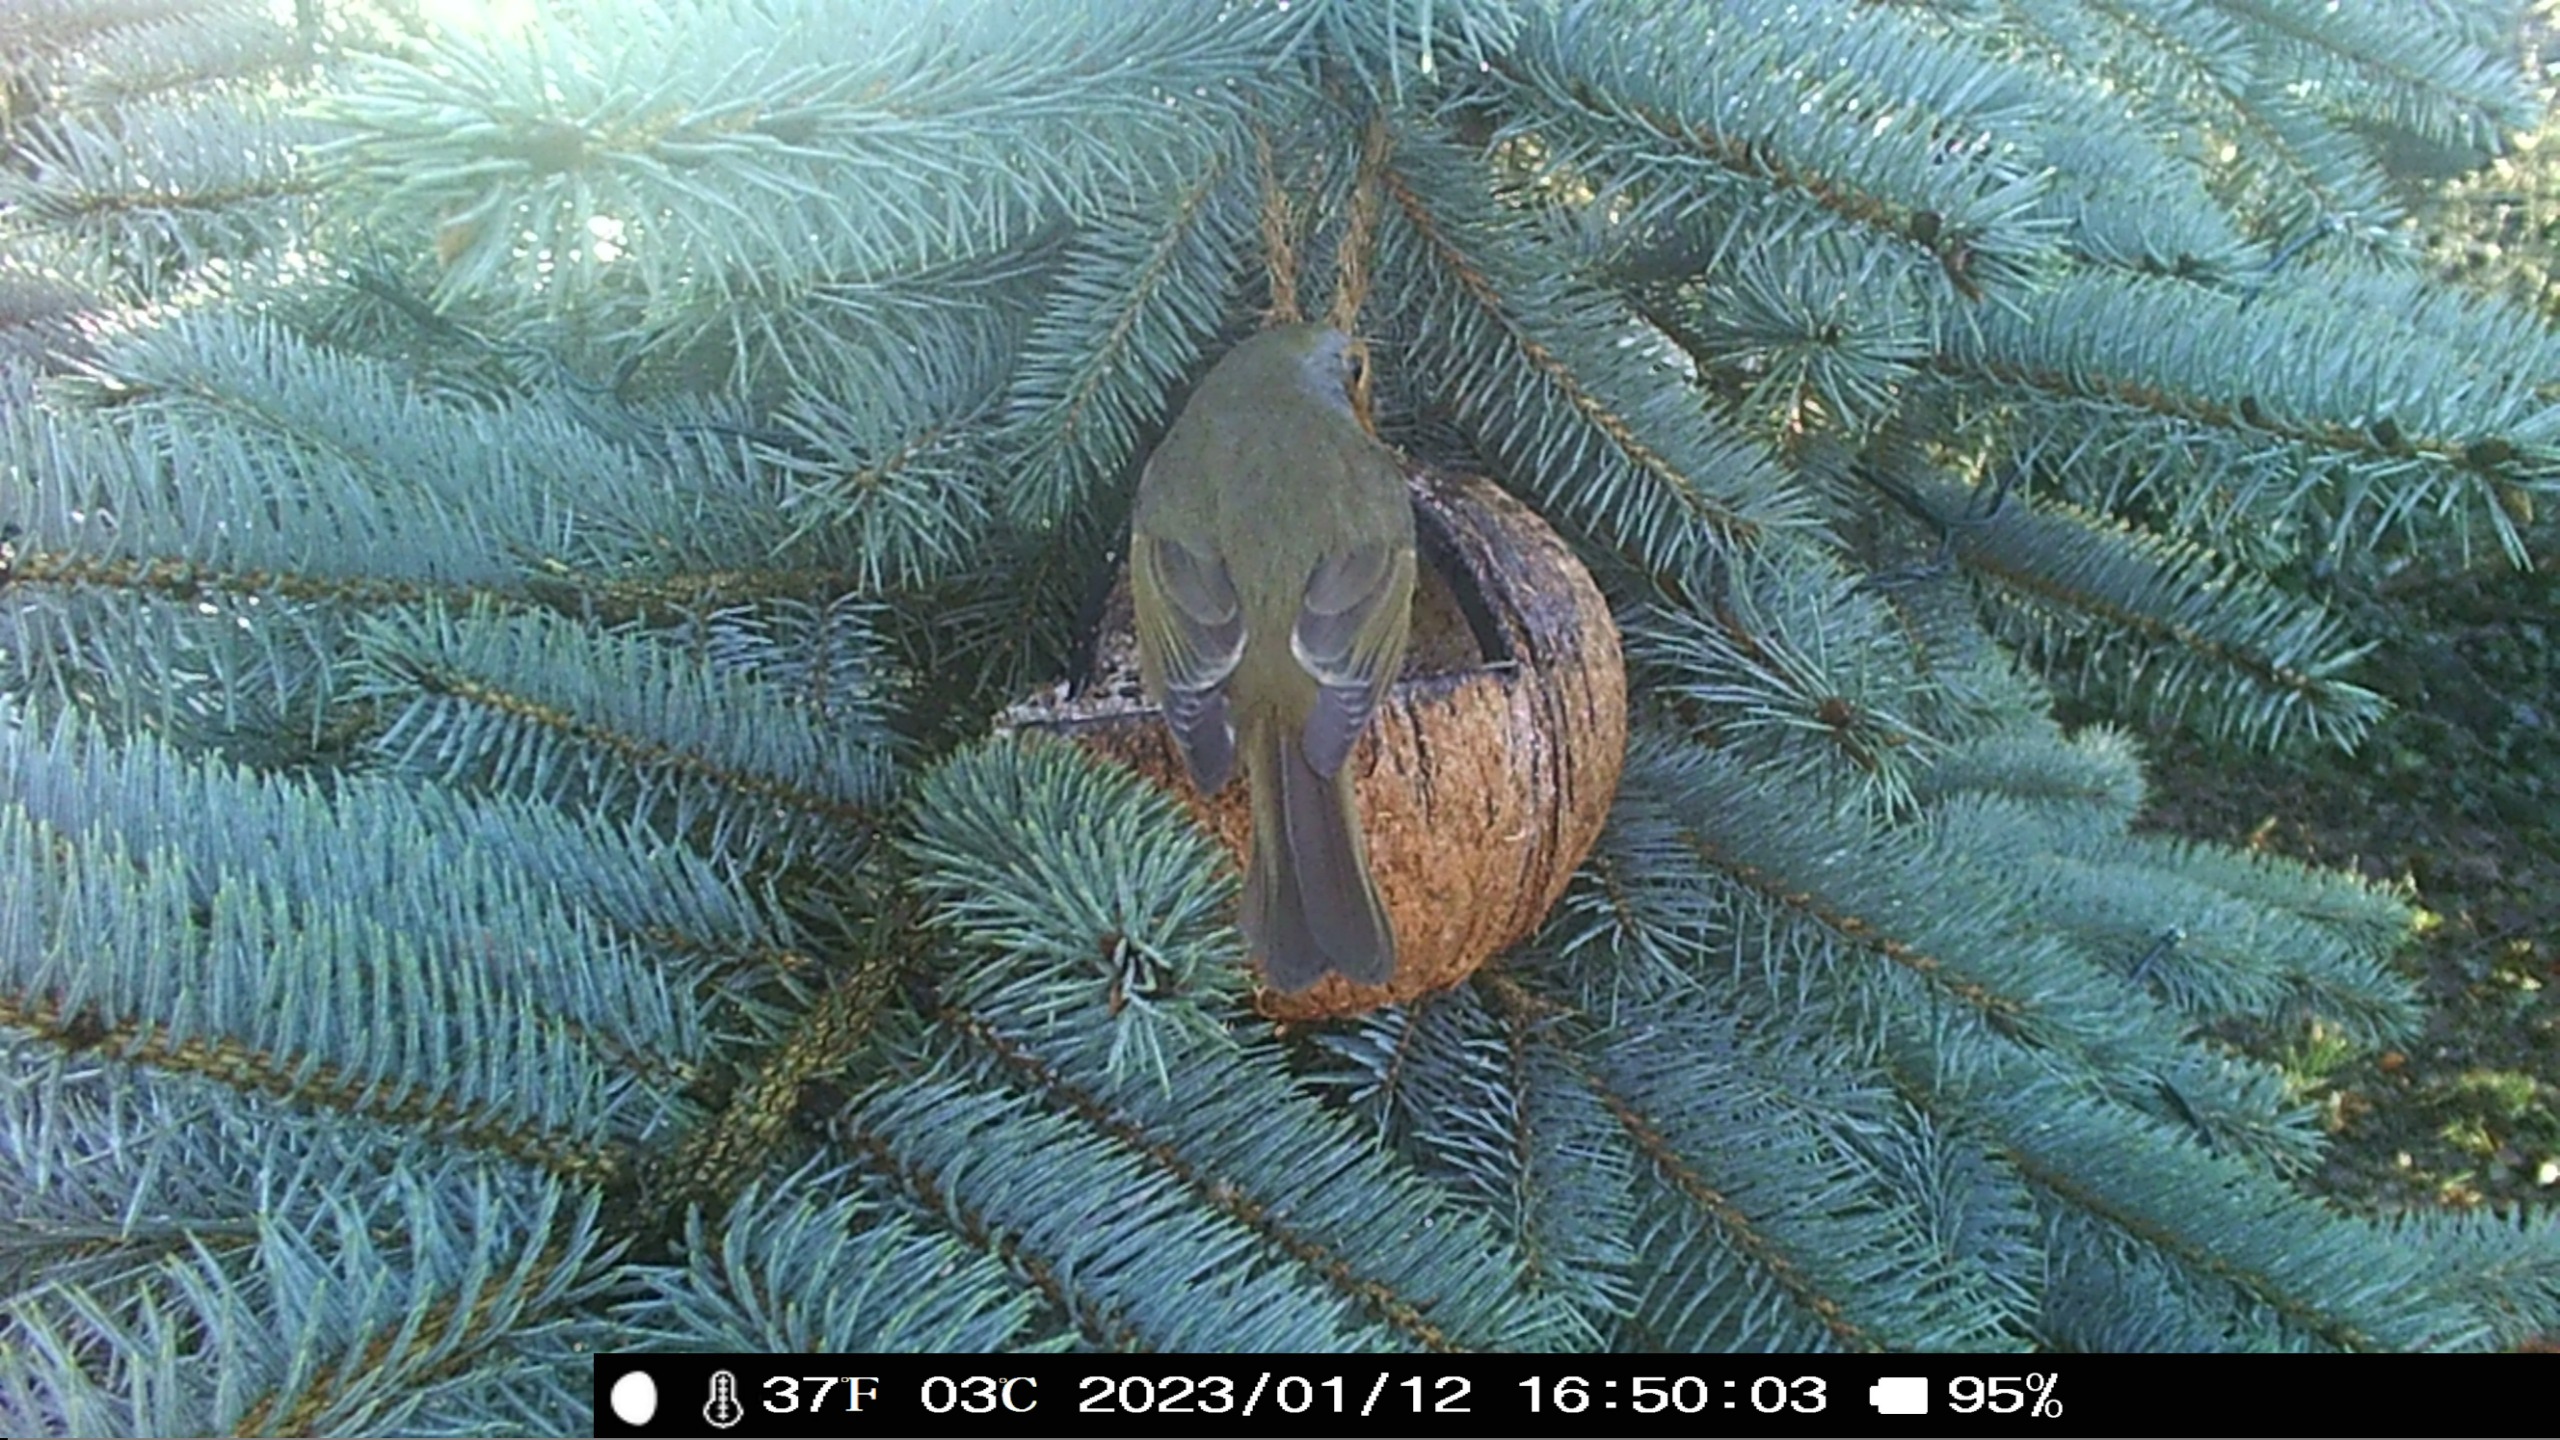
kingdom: Animalia
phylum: Chordata
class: Aves
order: Passeriformes
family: Muscicapidae
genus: Erithacus
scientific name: Erithacus rubecula
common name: Rødhals/rødkælk
